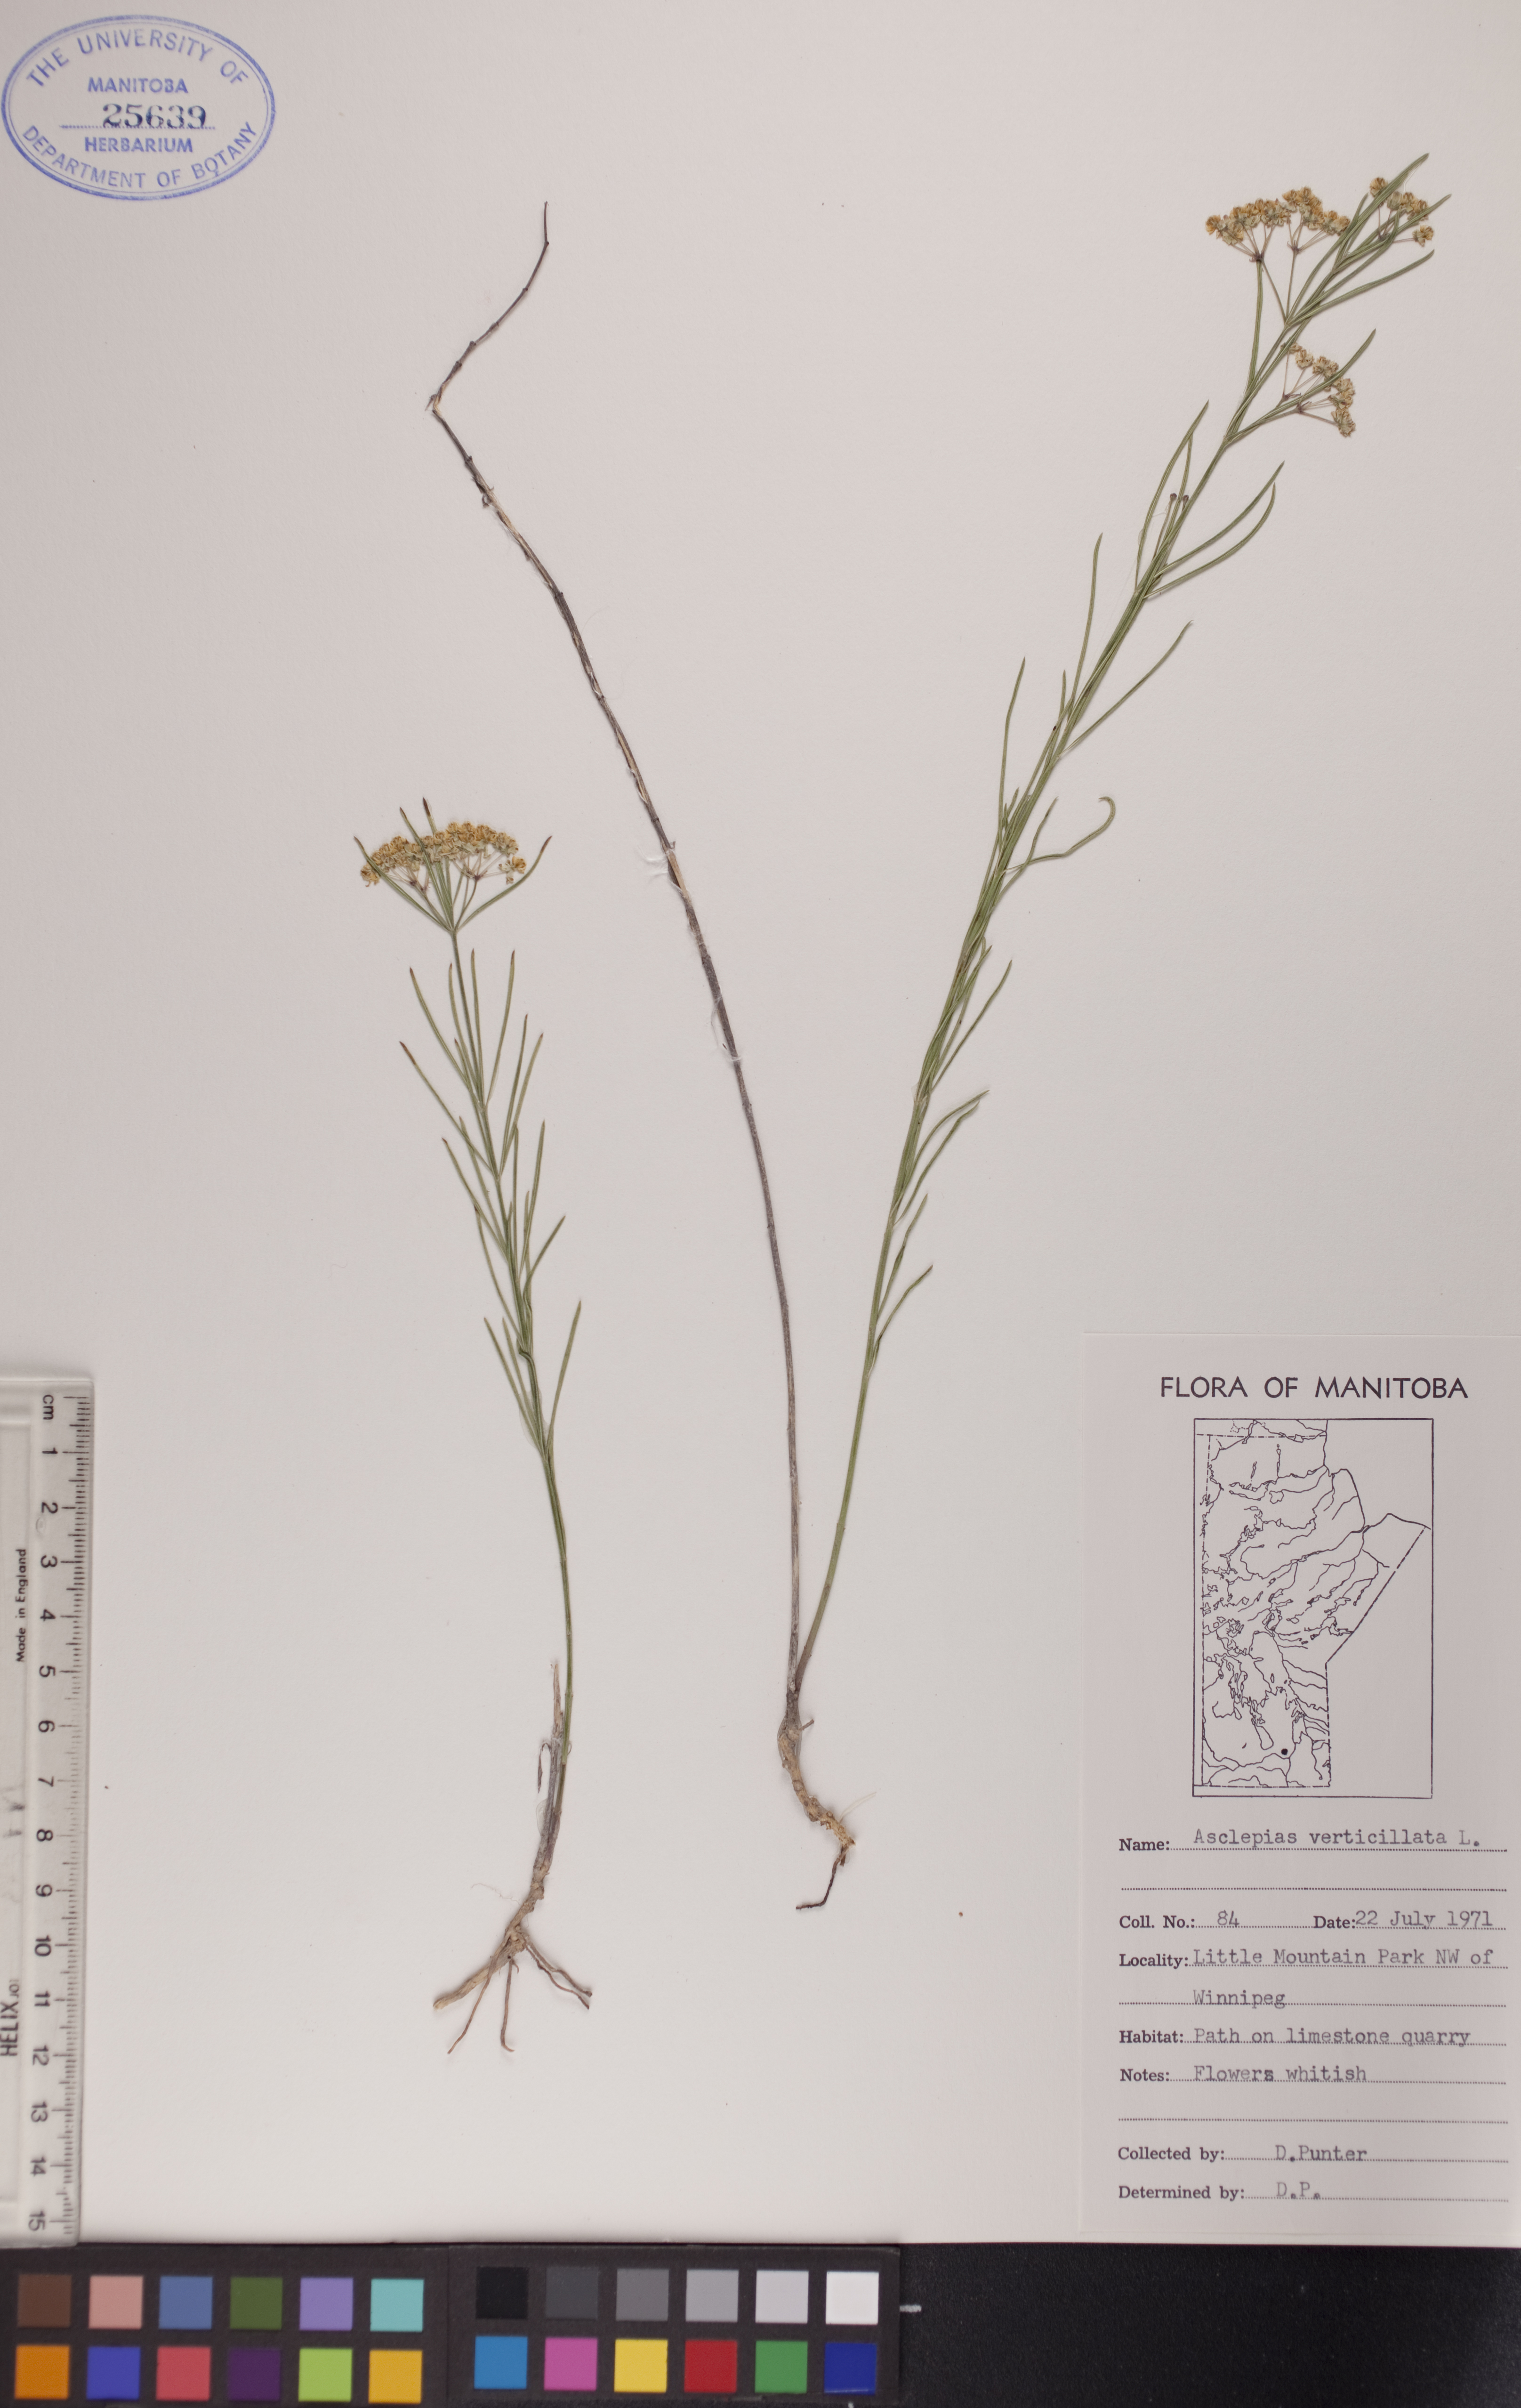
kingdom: Plantae
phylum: Tracheophyta
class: Magnoliopsida
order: Gentianales
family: Apocynaceae
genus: Asclepias
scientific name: Asclepias verticillata
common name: Eastern whorled milkweed
